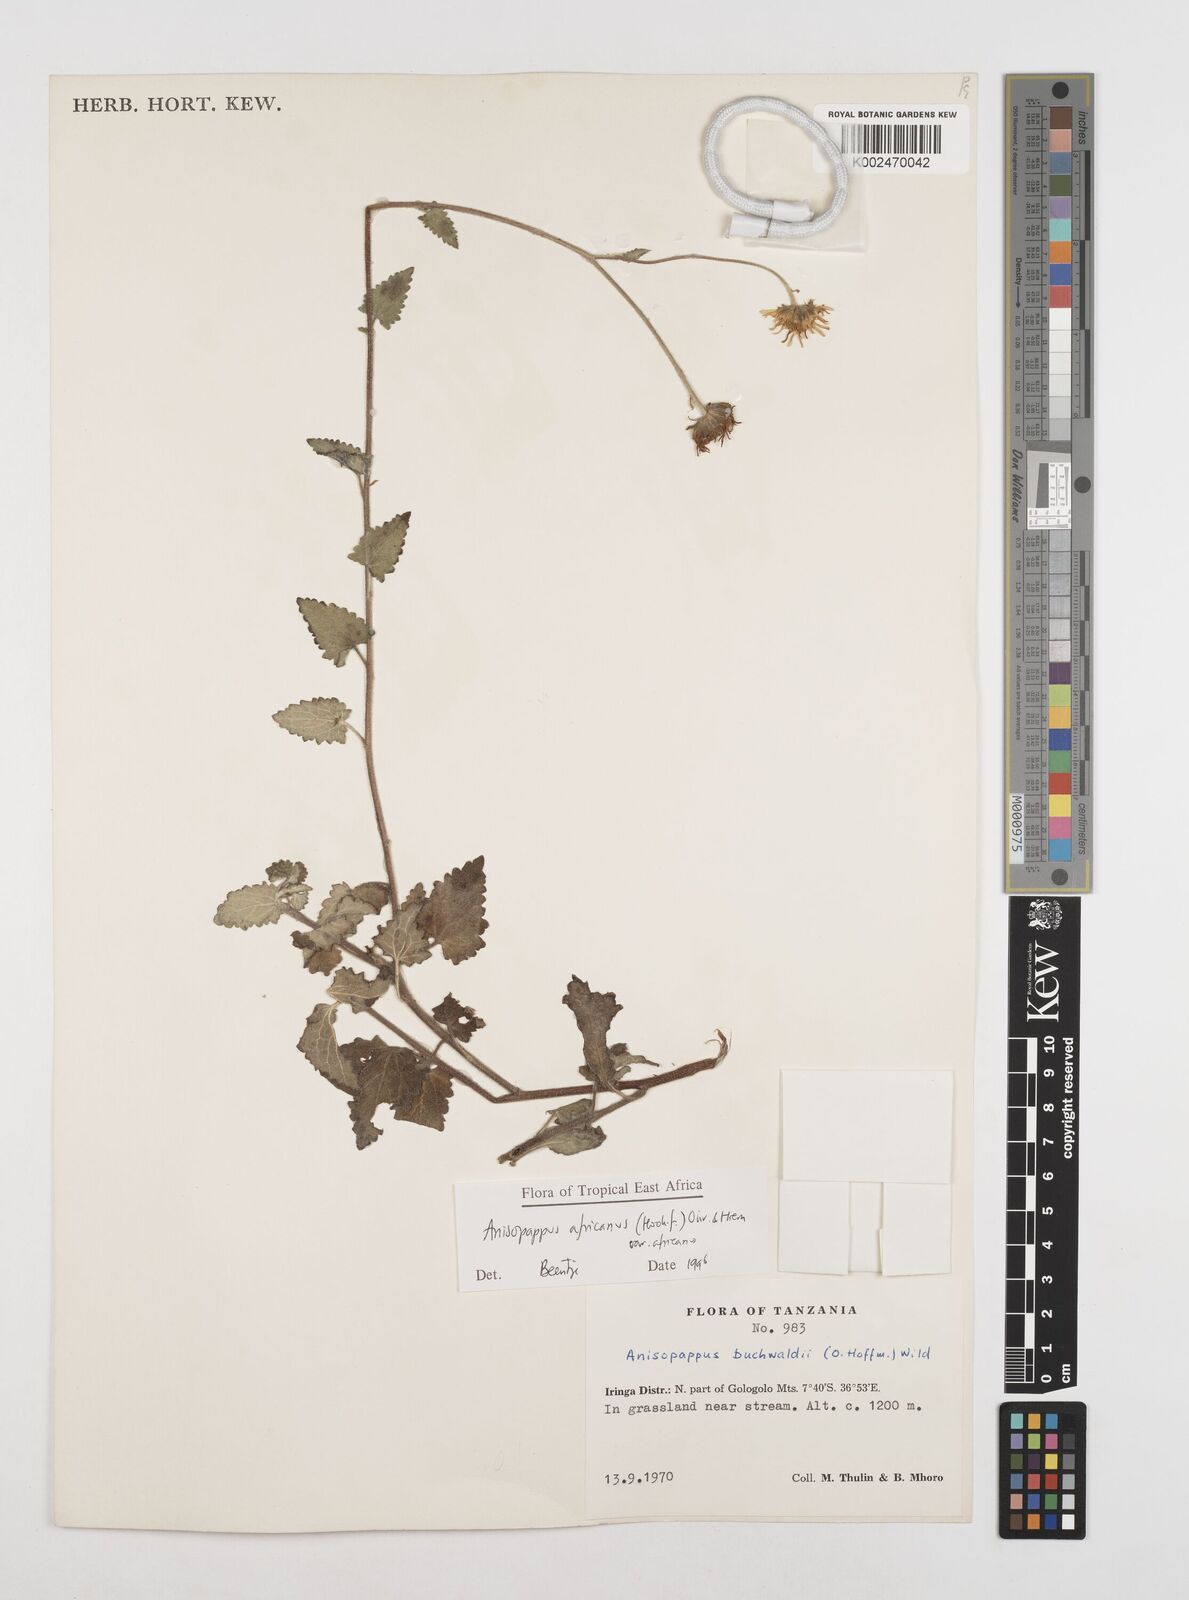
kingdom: Plantae
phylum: Tracheophyta
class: Magnoliopsida
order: Asterales
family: Asteraceae
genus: Anisopappus
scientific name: Anisopappus africanus
